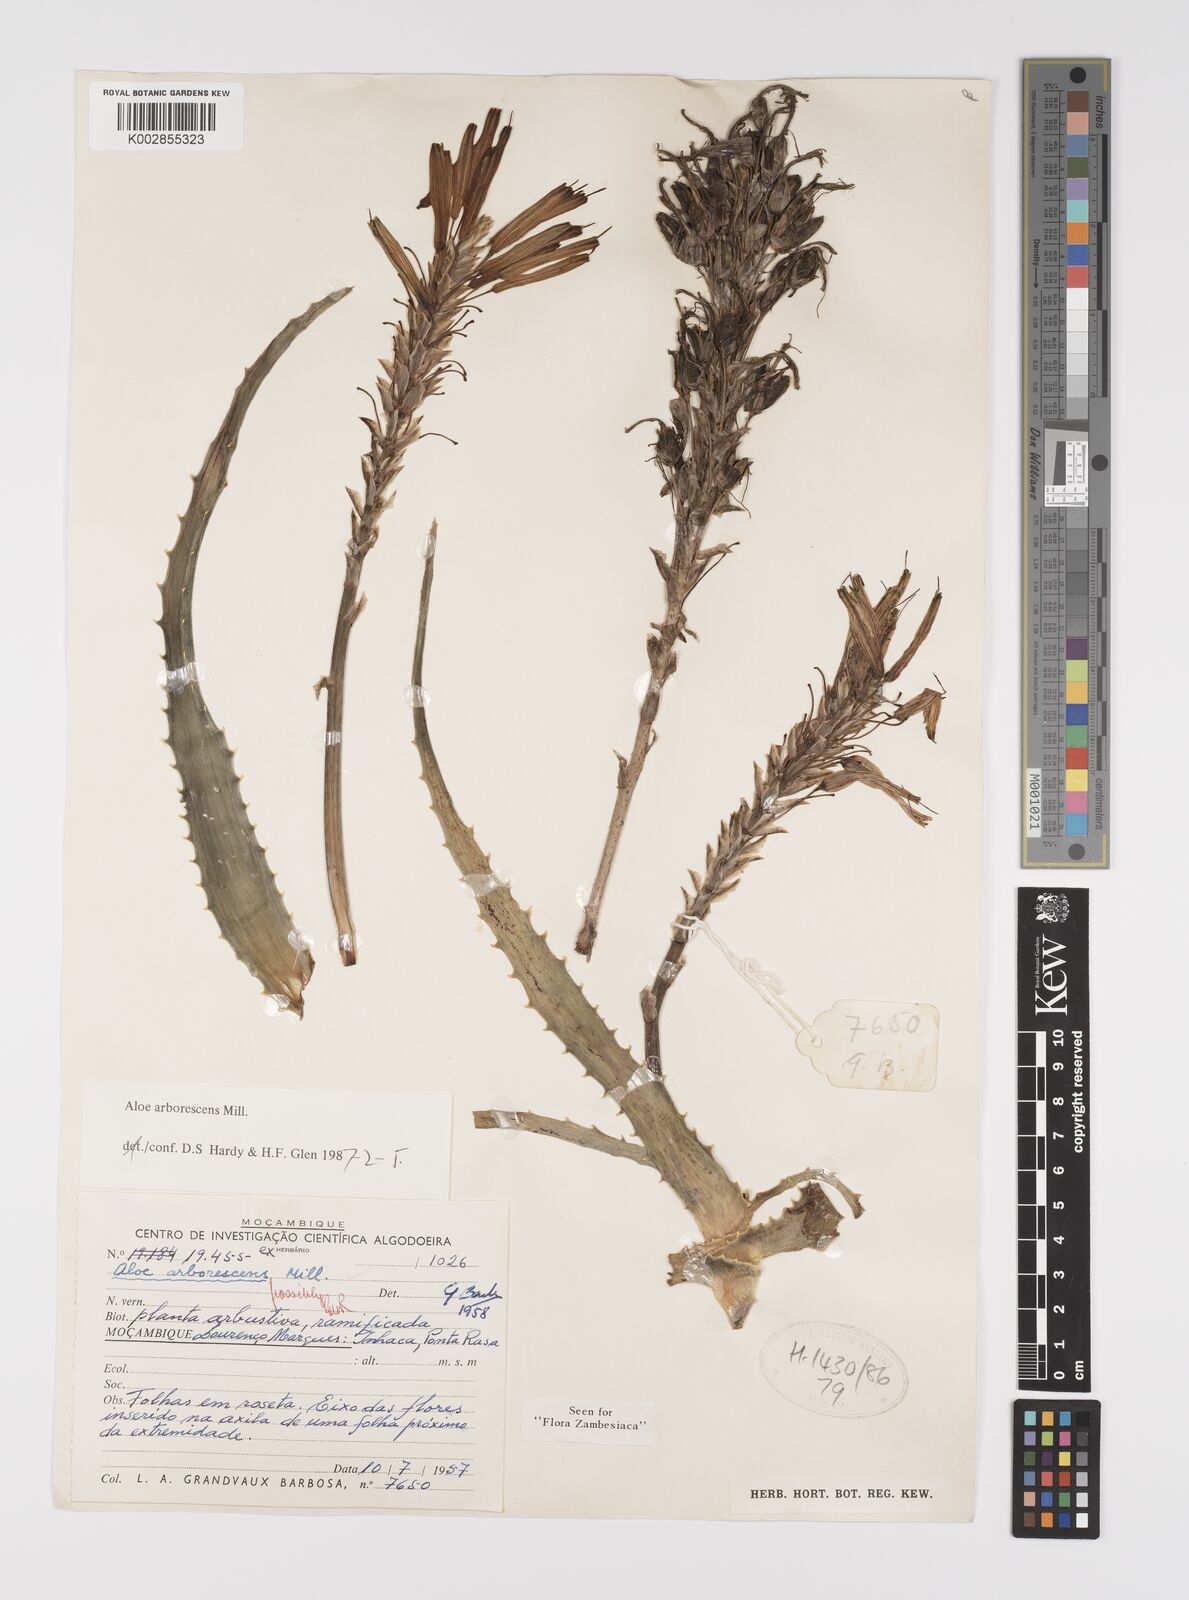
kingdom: Plantae
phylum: Tracheophyta
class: Liliopsida
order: Asparagales
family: Asphodelaceae
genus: Aloe
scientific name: Aloe
